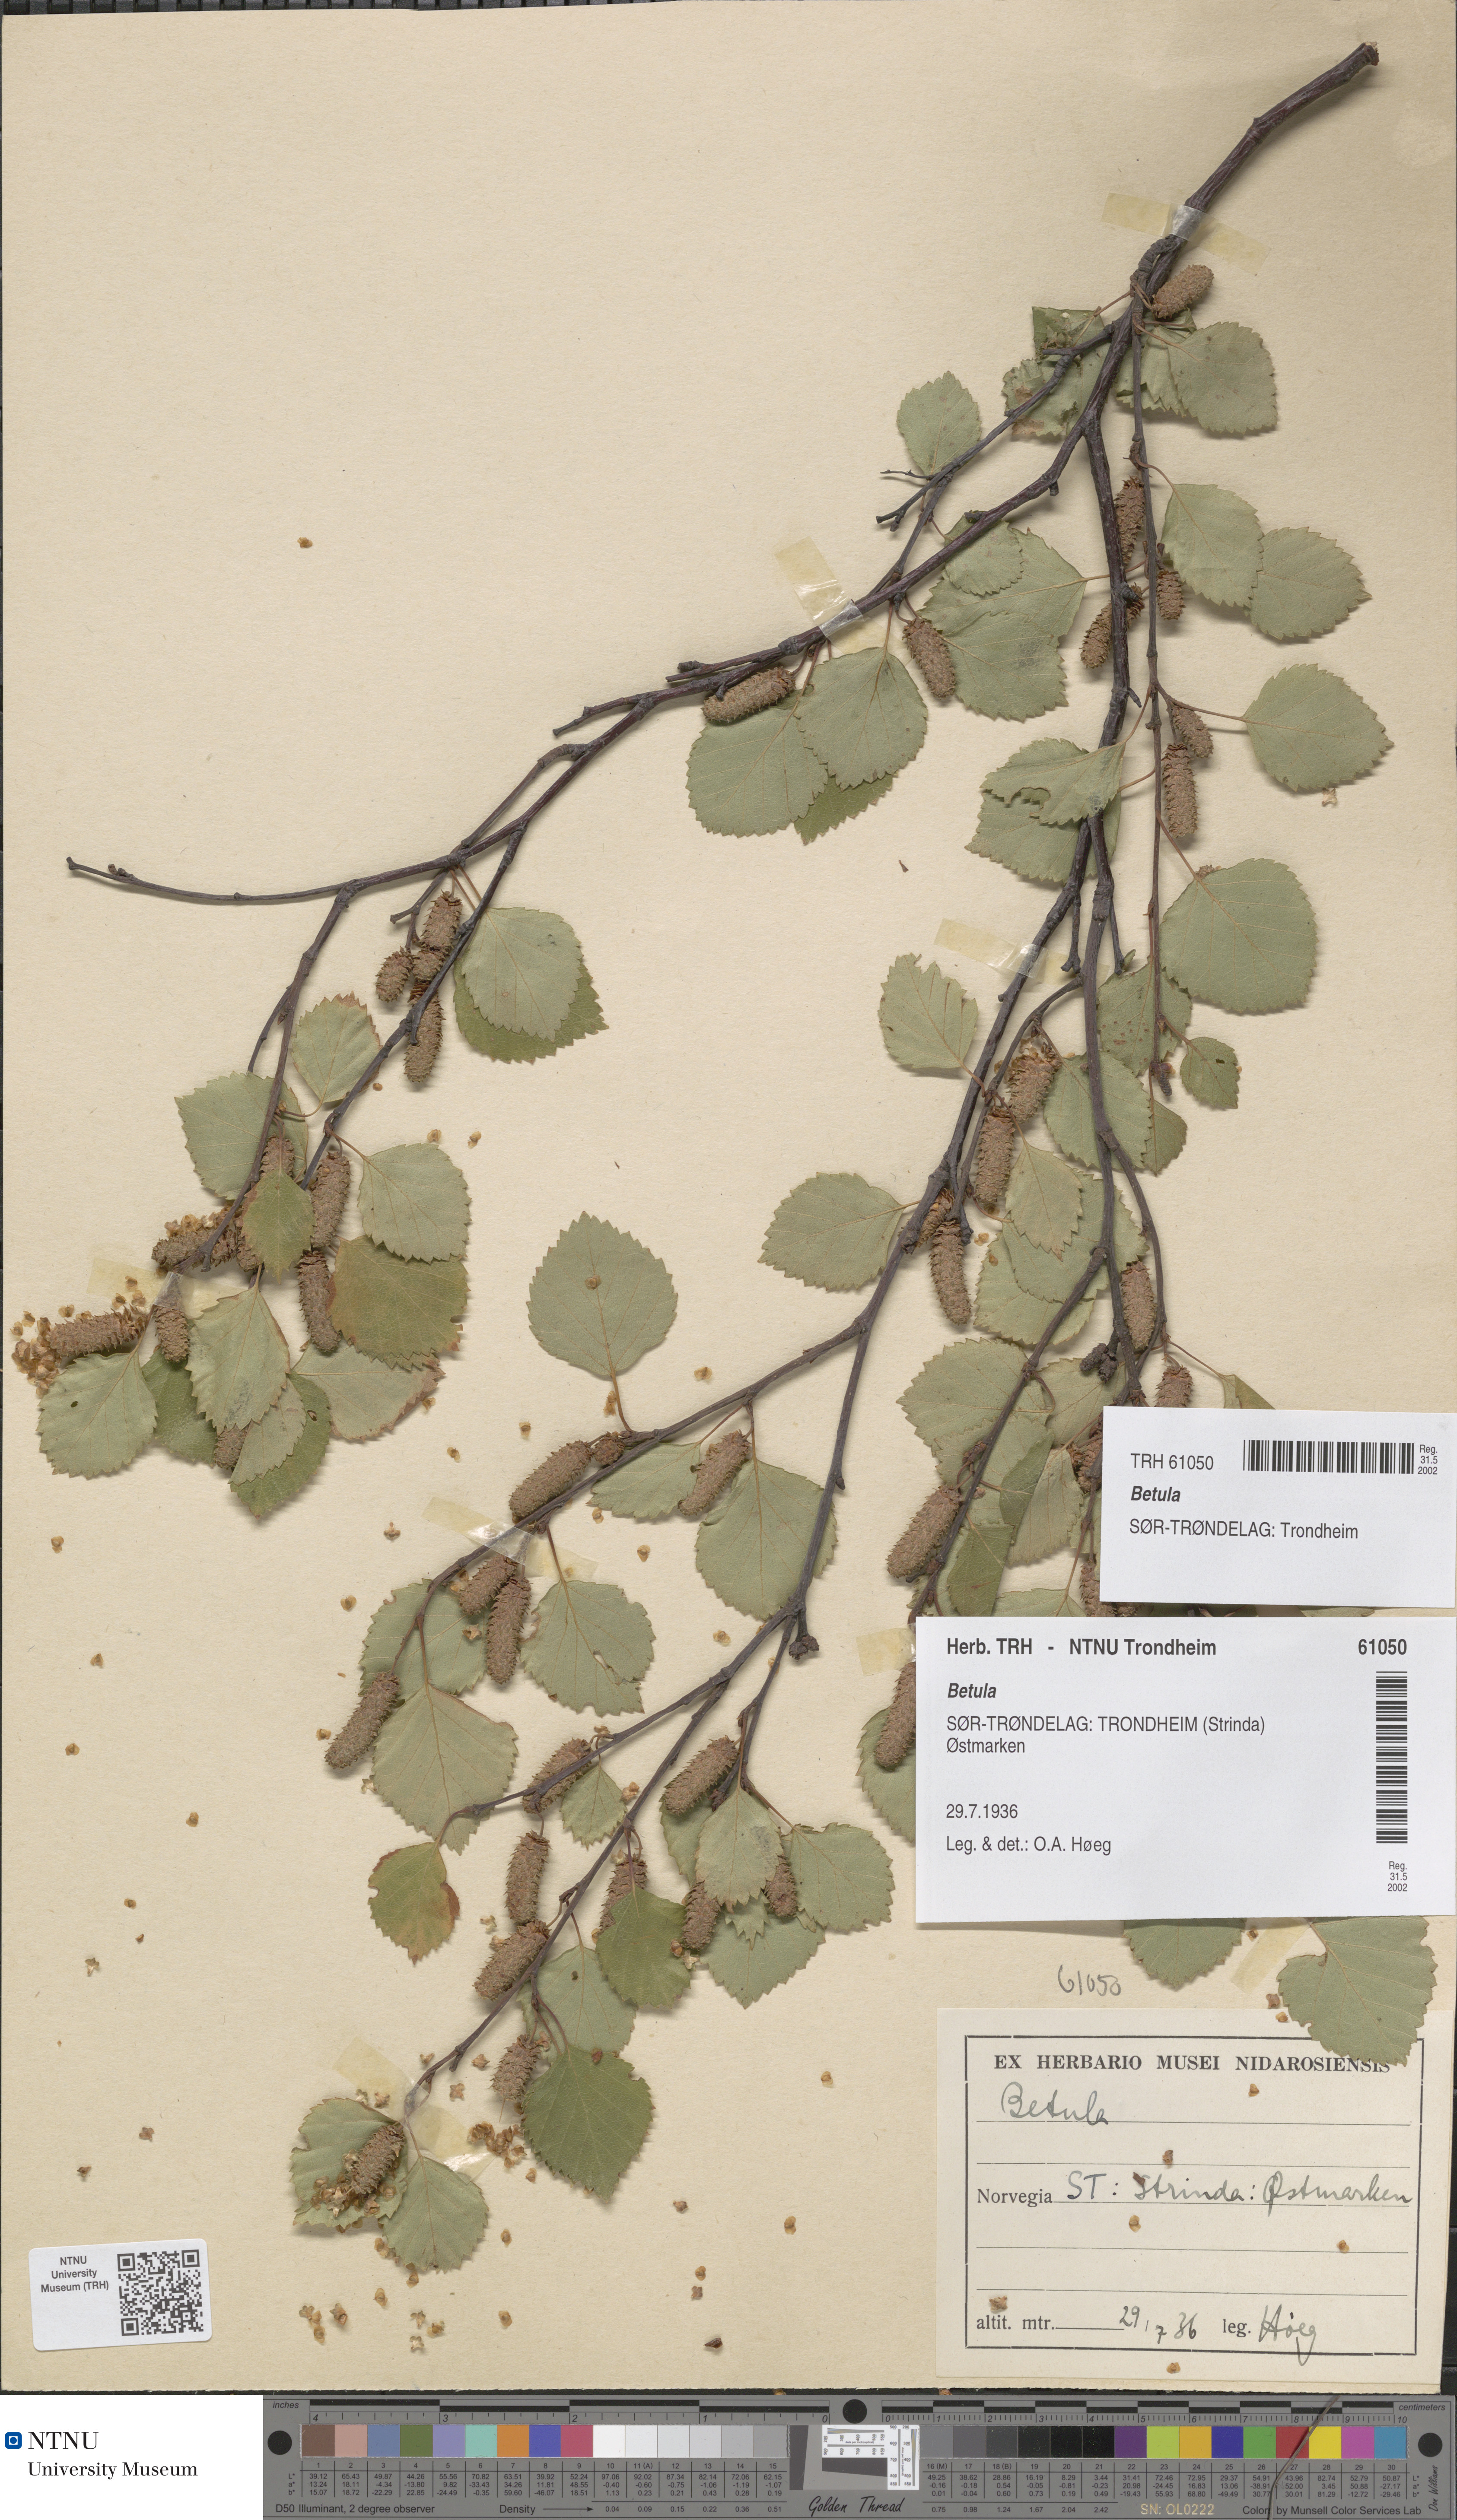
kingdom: Plantae
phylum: Tracheophyta
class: Magnoliopsida
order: Fagales
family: Betulaceae
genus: Betula
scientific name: Betula
